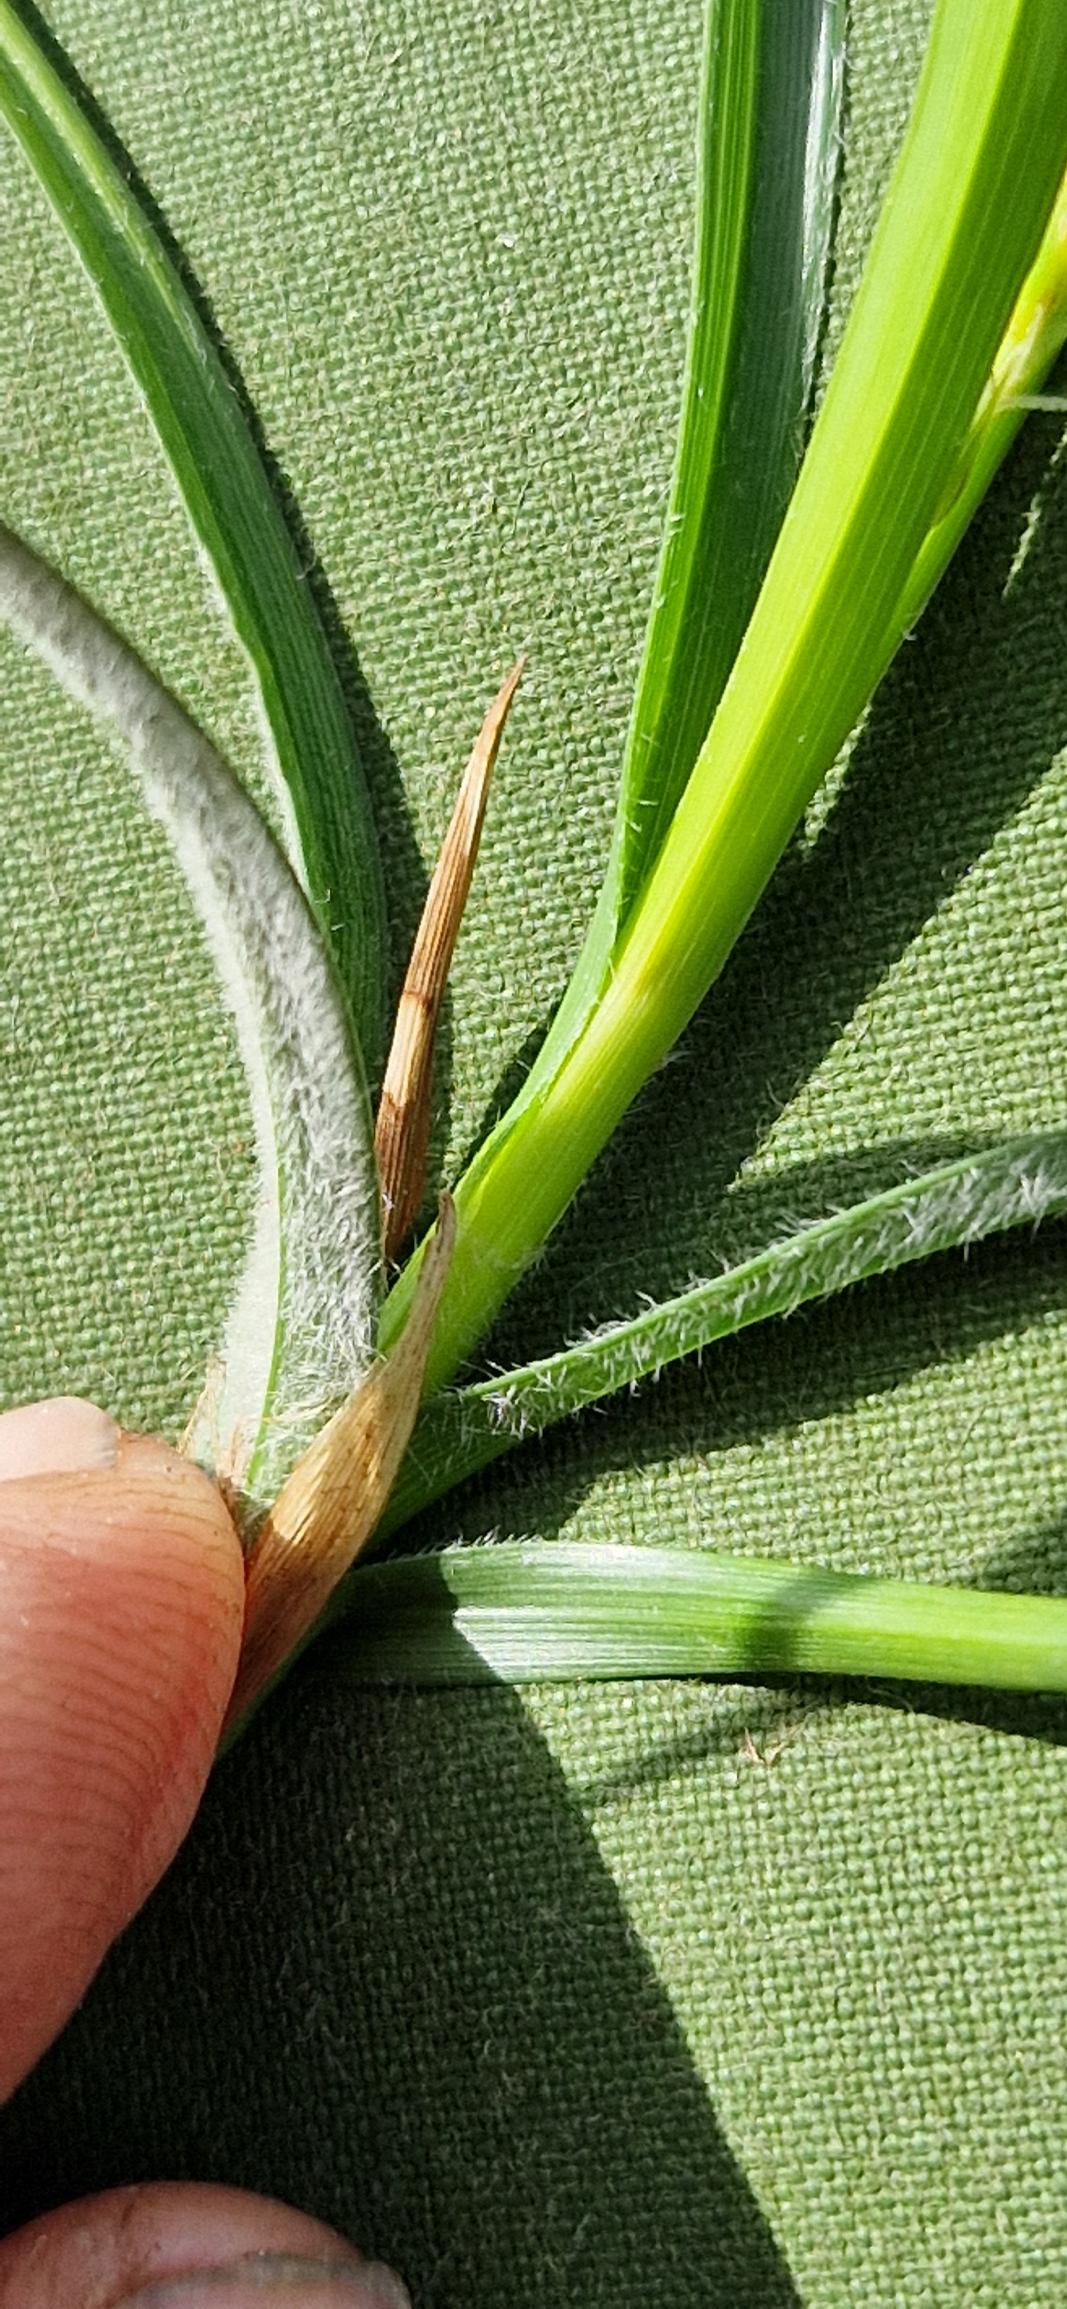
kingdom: Plantae
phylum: Tracheophyta
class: Liliopsida
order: Poales
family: Cyperaceae
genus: Carex
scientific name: Carex hirta
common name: Håret star
